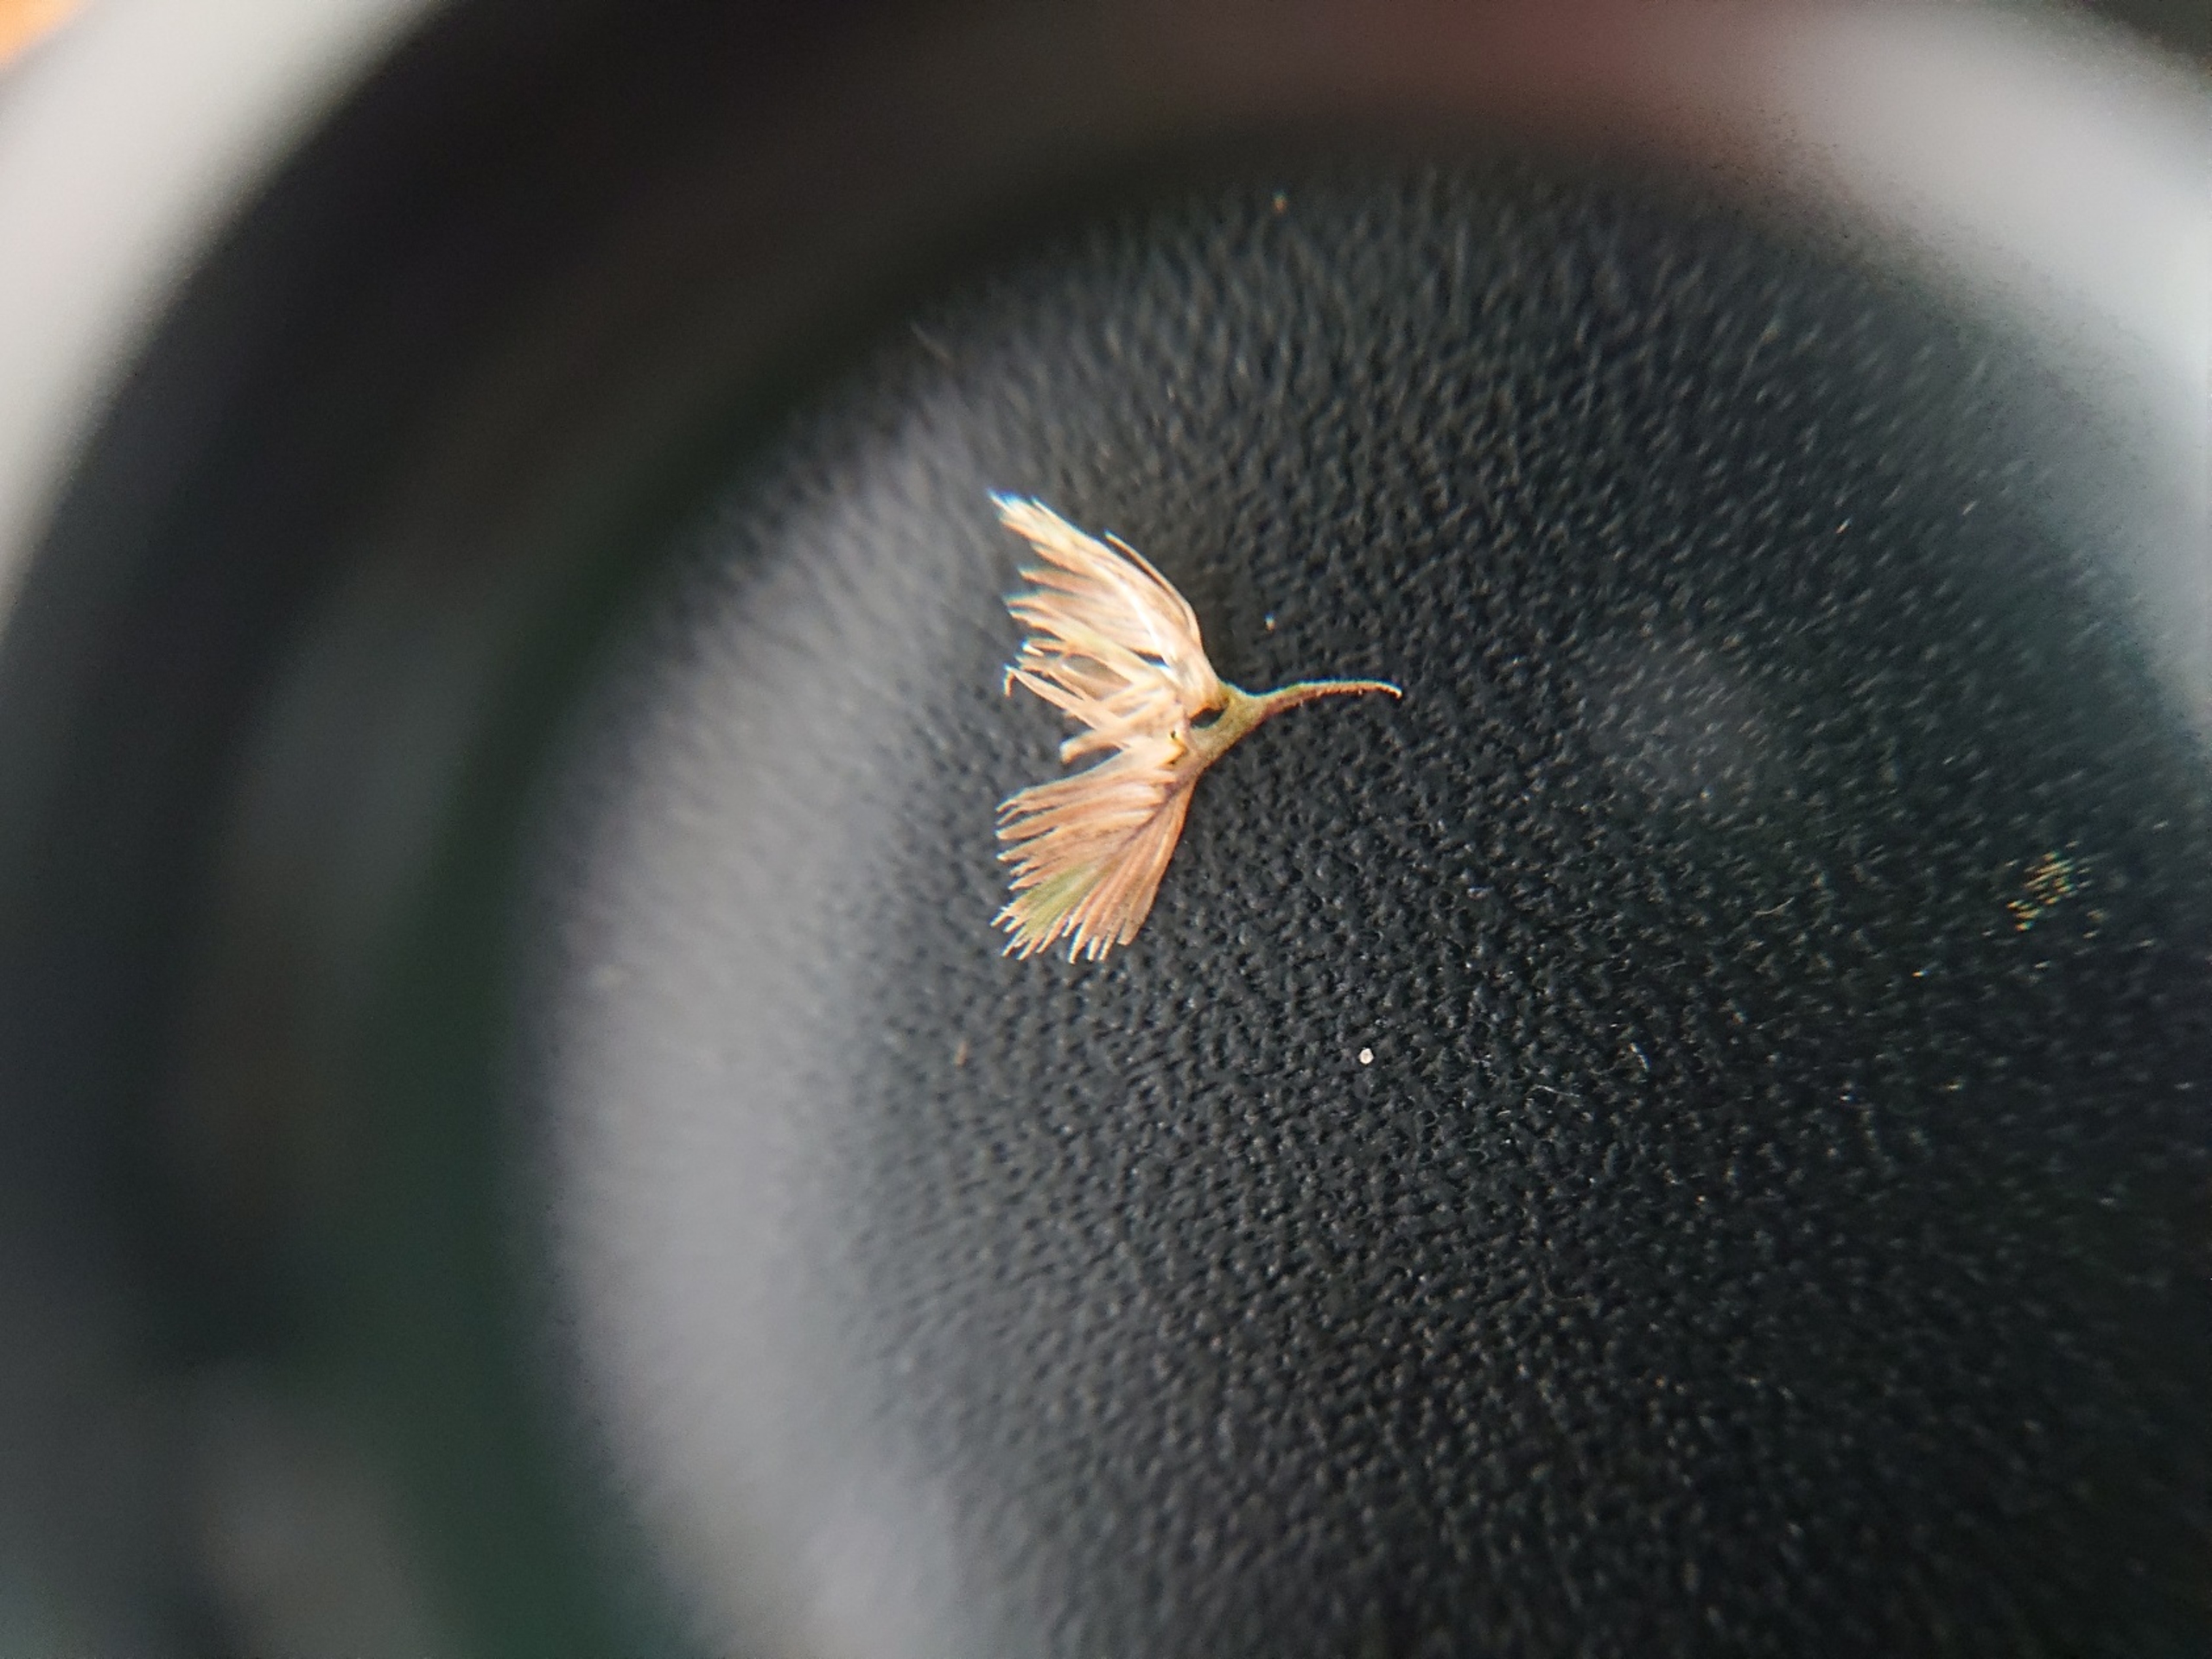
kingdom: Plantae
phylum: Tracheophyta
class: Liliopsida
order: Poales
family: Poaceae
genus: Cynosurus
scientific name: Cynosurus cristatus
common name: Kamgræs
